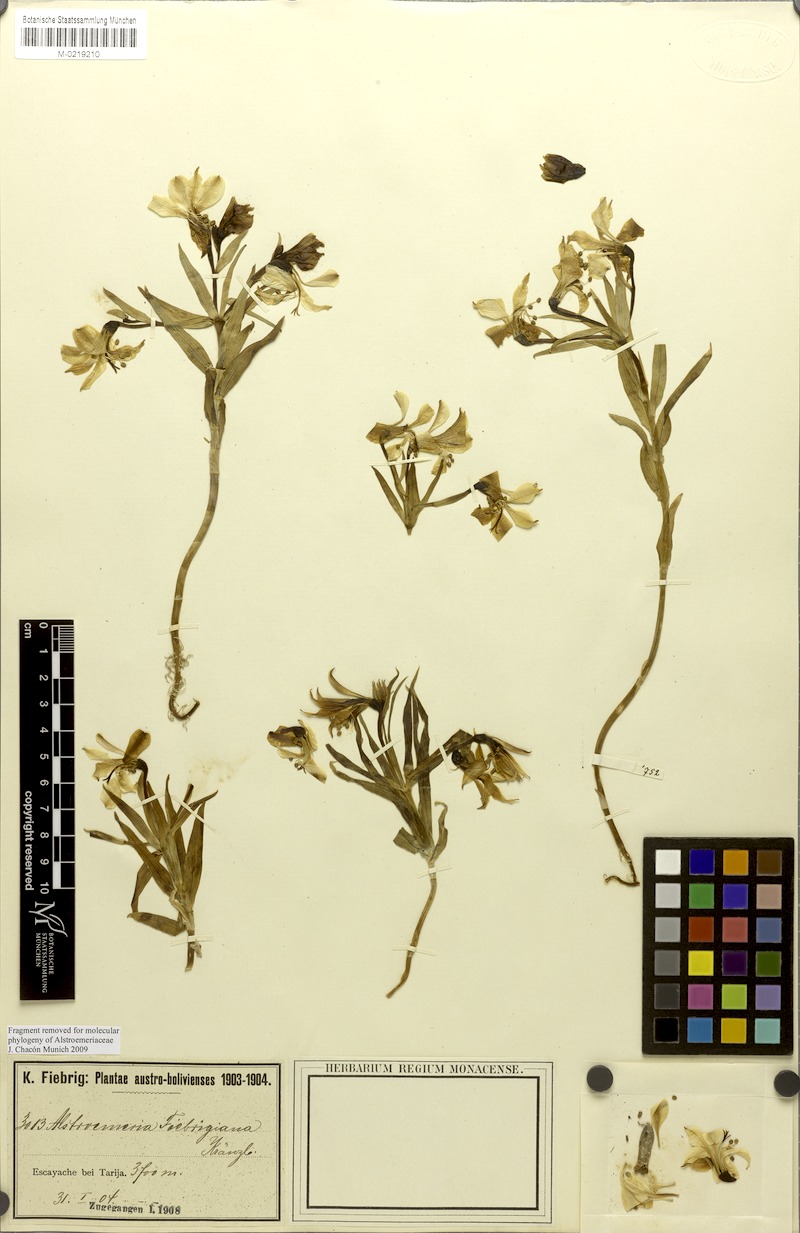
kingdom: Plantae
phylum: Tracheophyta
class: Liliopsida
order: Liliales
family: Alstroemeriaceae
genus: Alstroemeria
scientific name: Alstroemeria fiebrigiana
